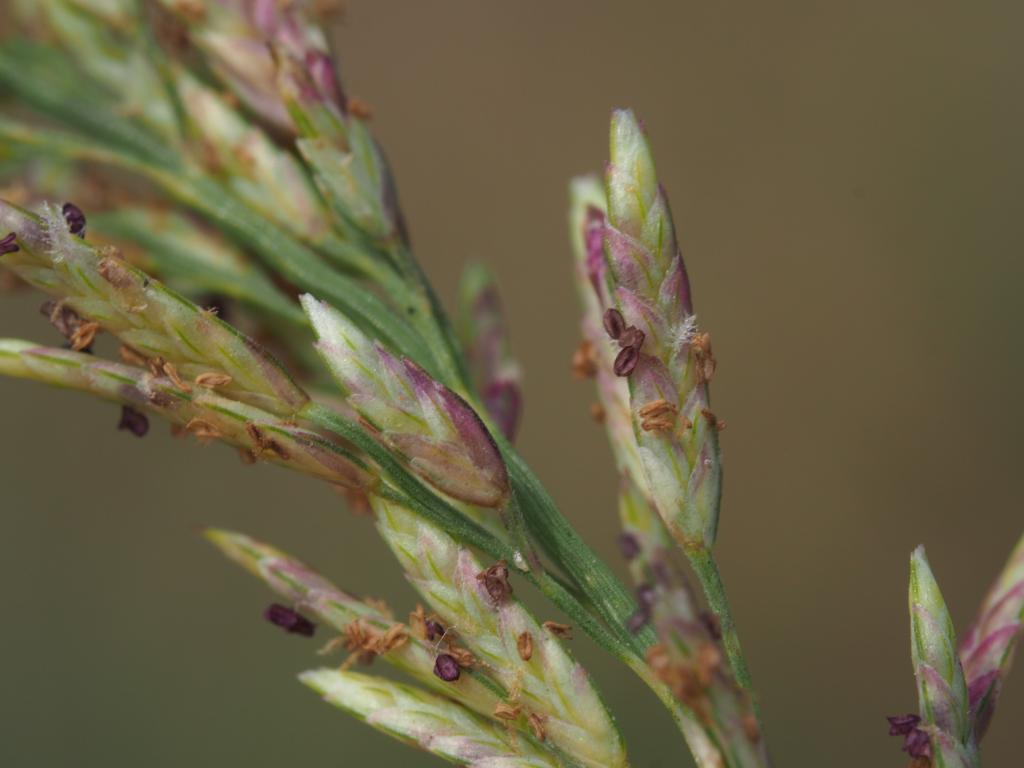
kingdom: Plantae
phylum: Tracheophyta
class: Liliopsida
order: Poales
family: Poaceae
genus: Eragrostis
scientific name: Eragrostis cylindrica
